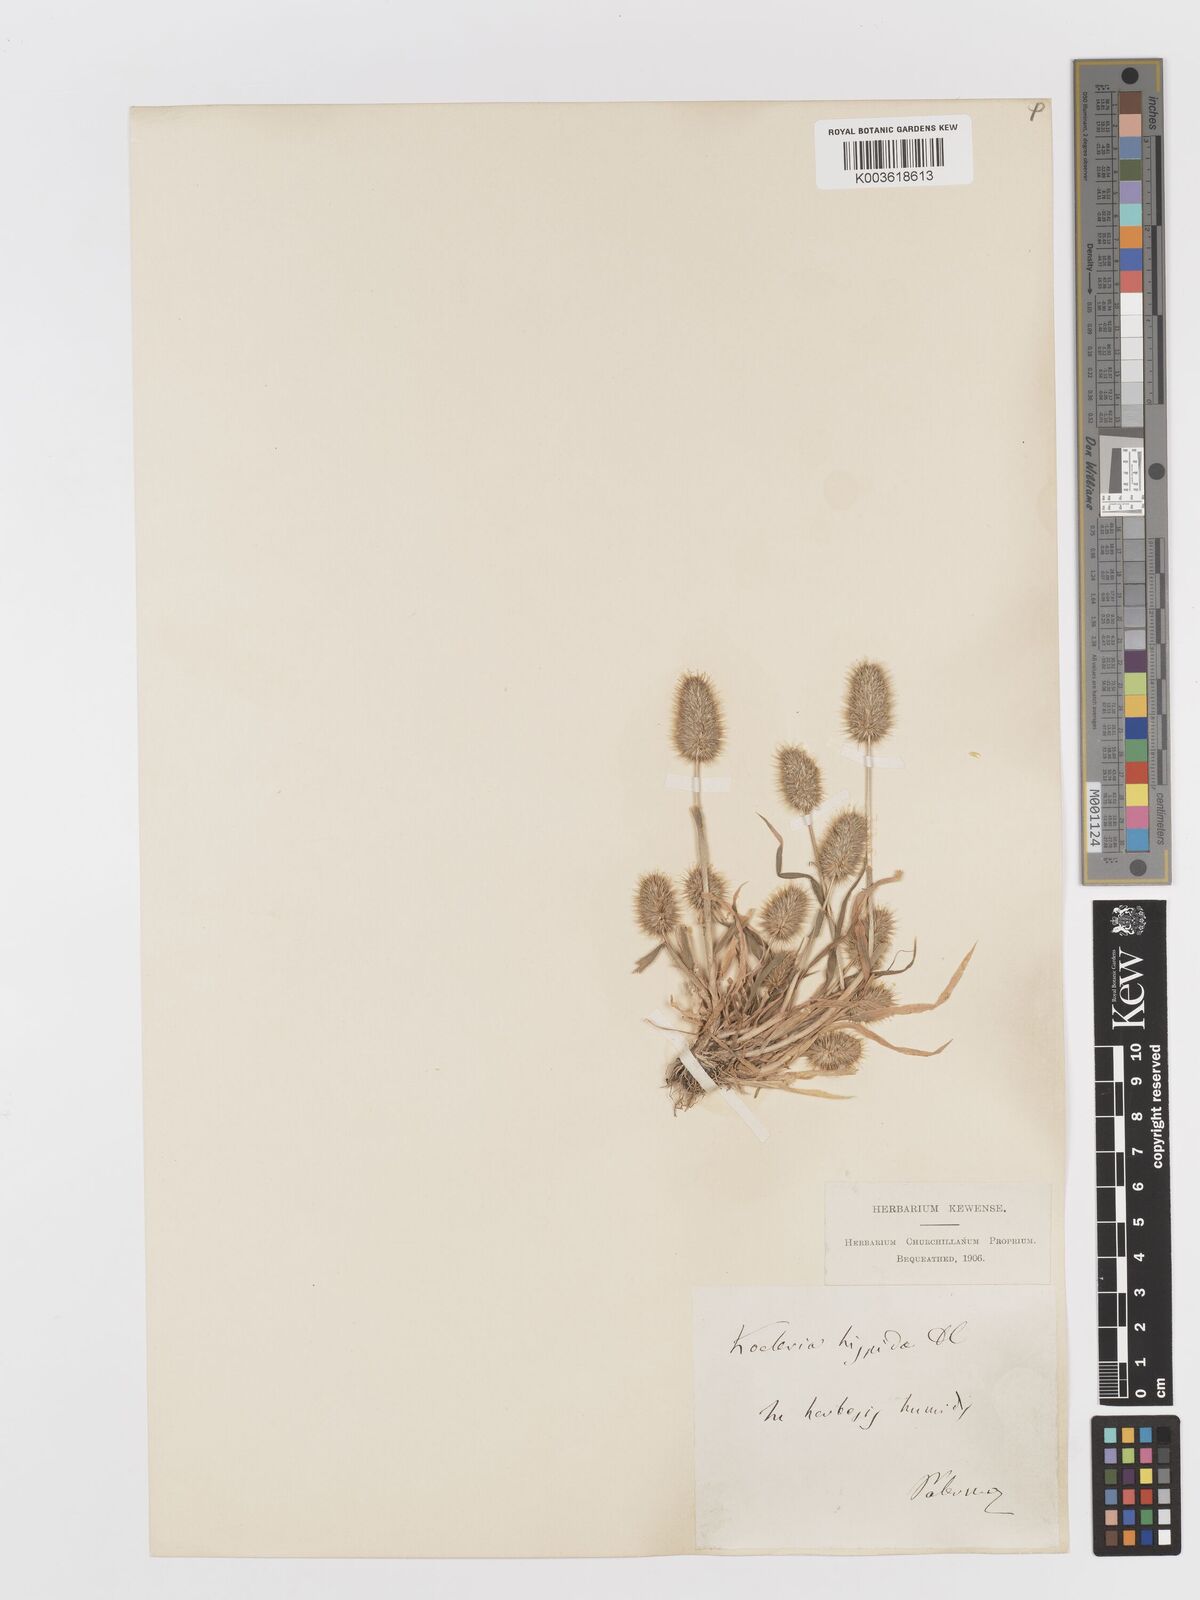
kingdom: Plantae
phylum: Tracheophyta
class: Liliopsida
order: Poales
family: Poaceae
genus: Rostraria
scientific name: Rostraria hispida
